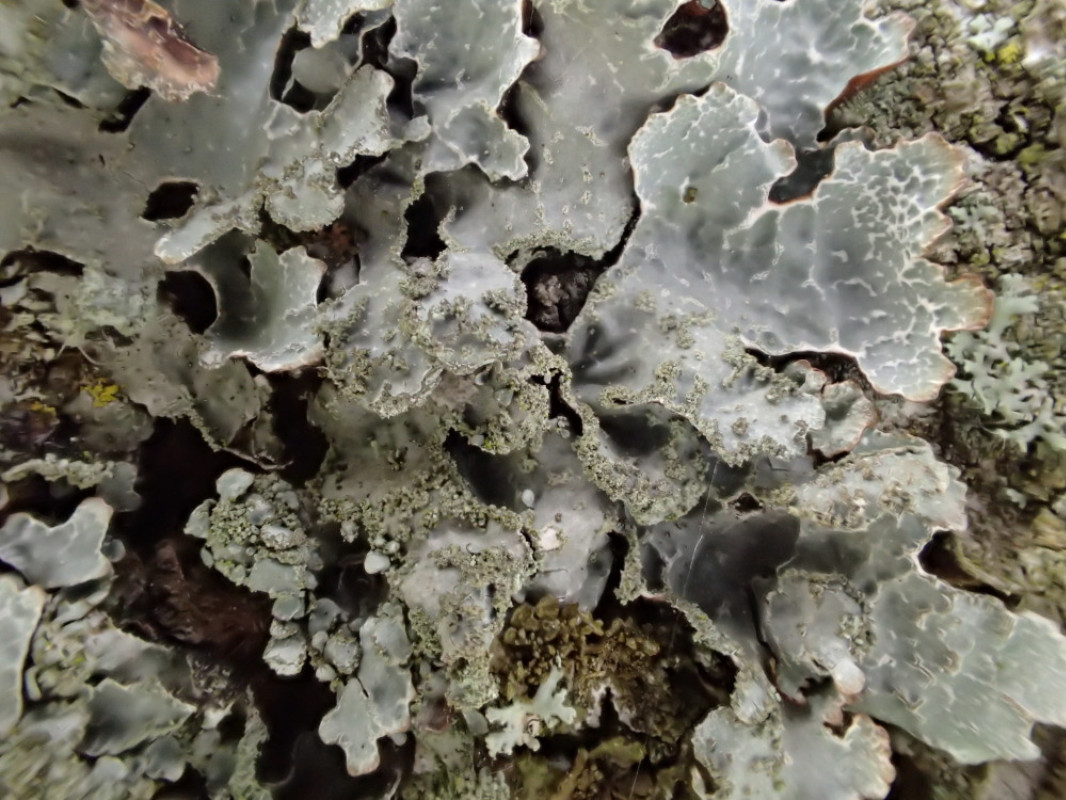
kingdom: Fungi
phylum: Ascomycota
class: Lecanoromycetes
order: Lecanorales
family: Parmeliaceae
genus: Parmelia
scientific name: Parmelia sulcata
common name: rynket skållav
